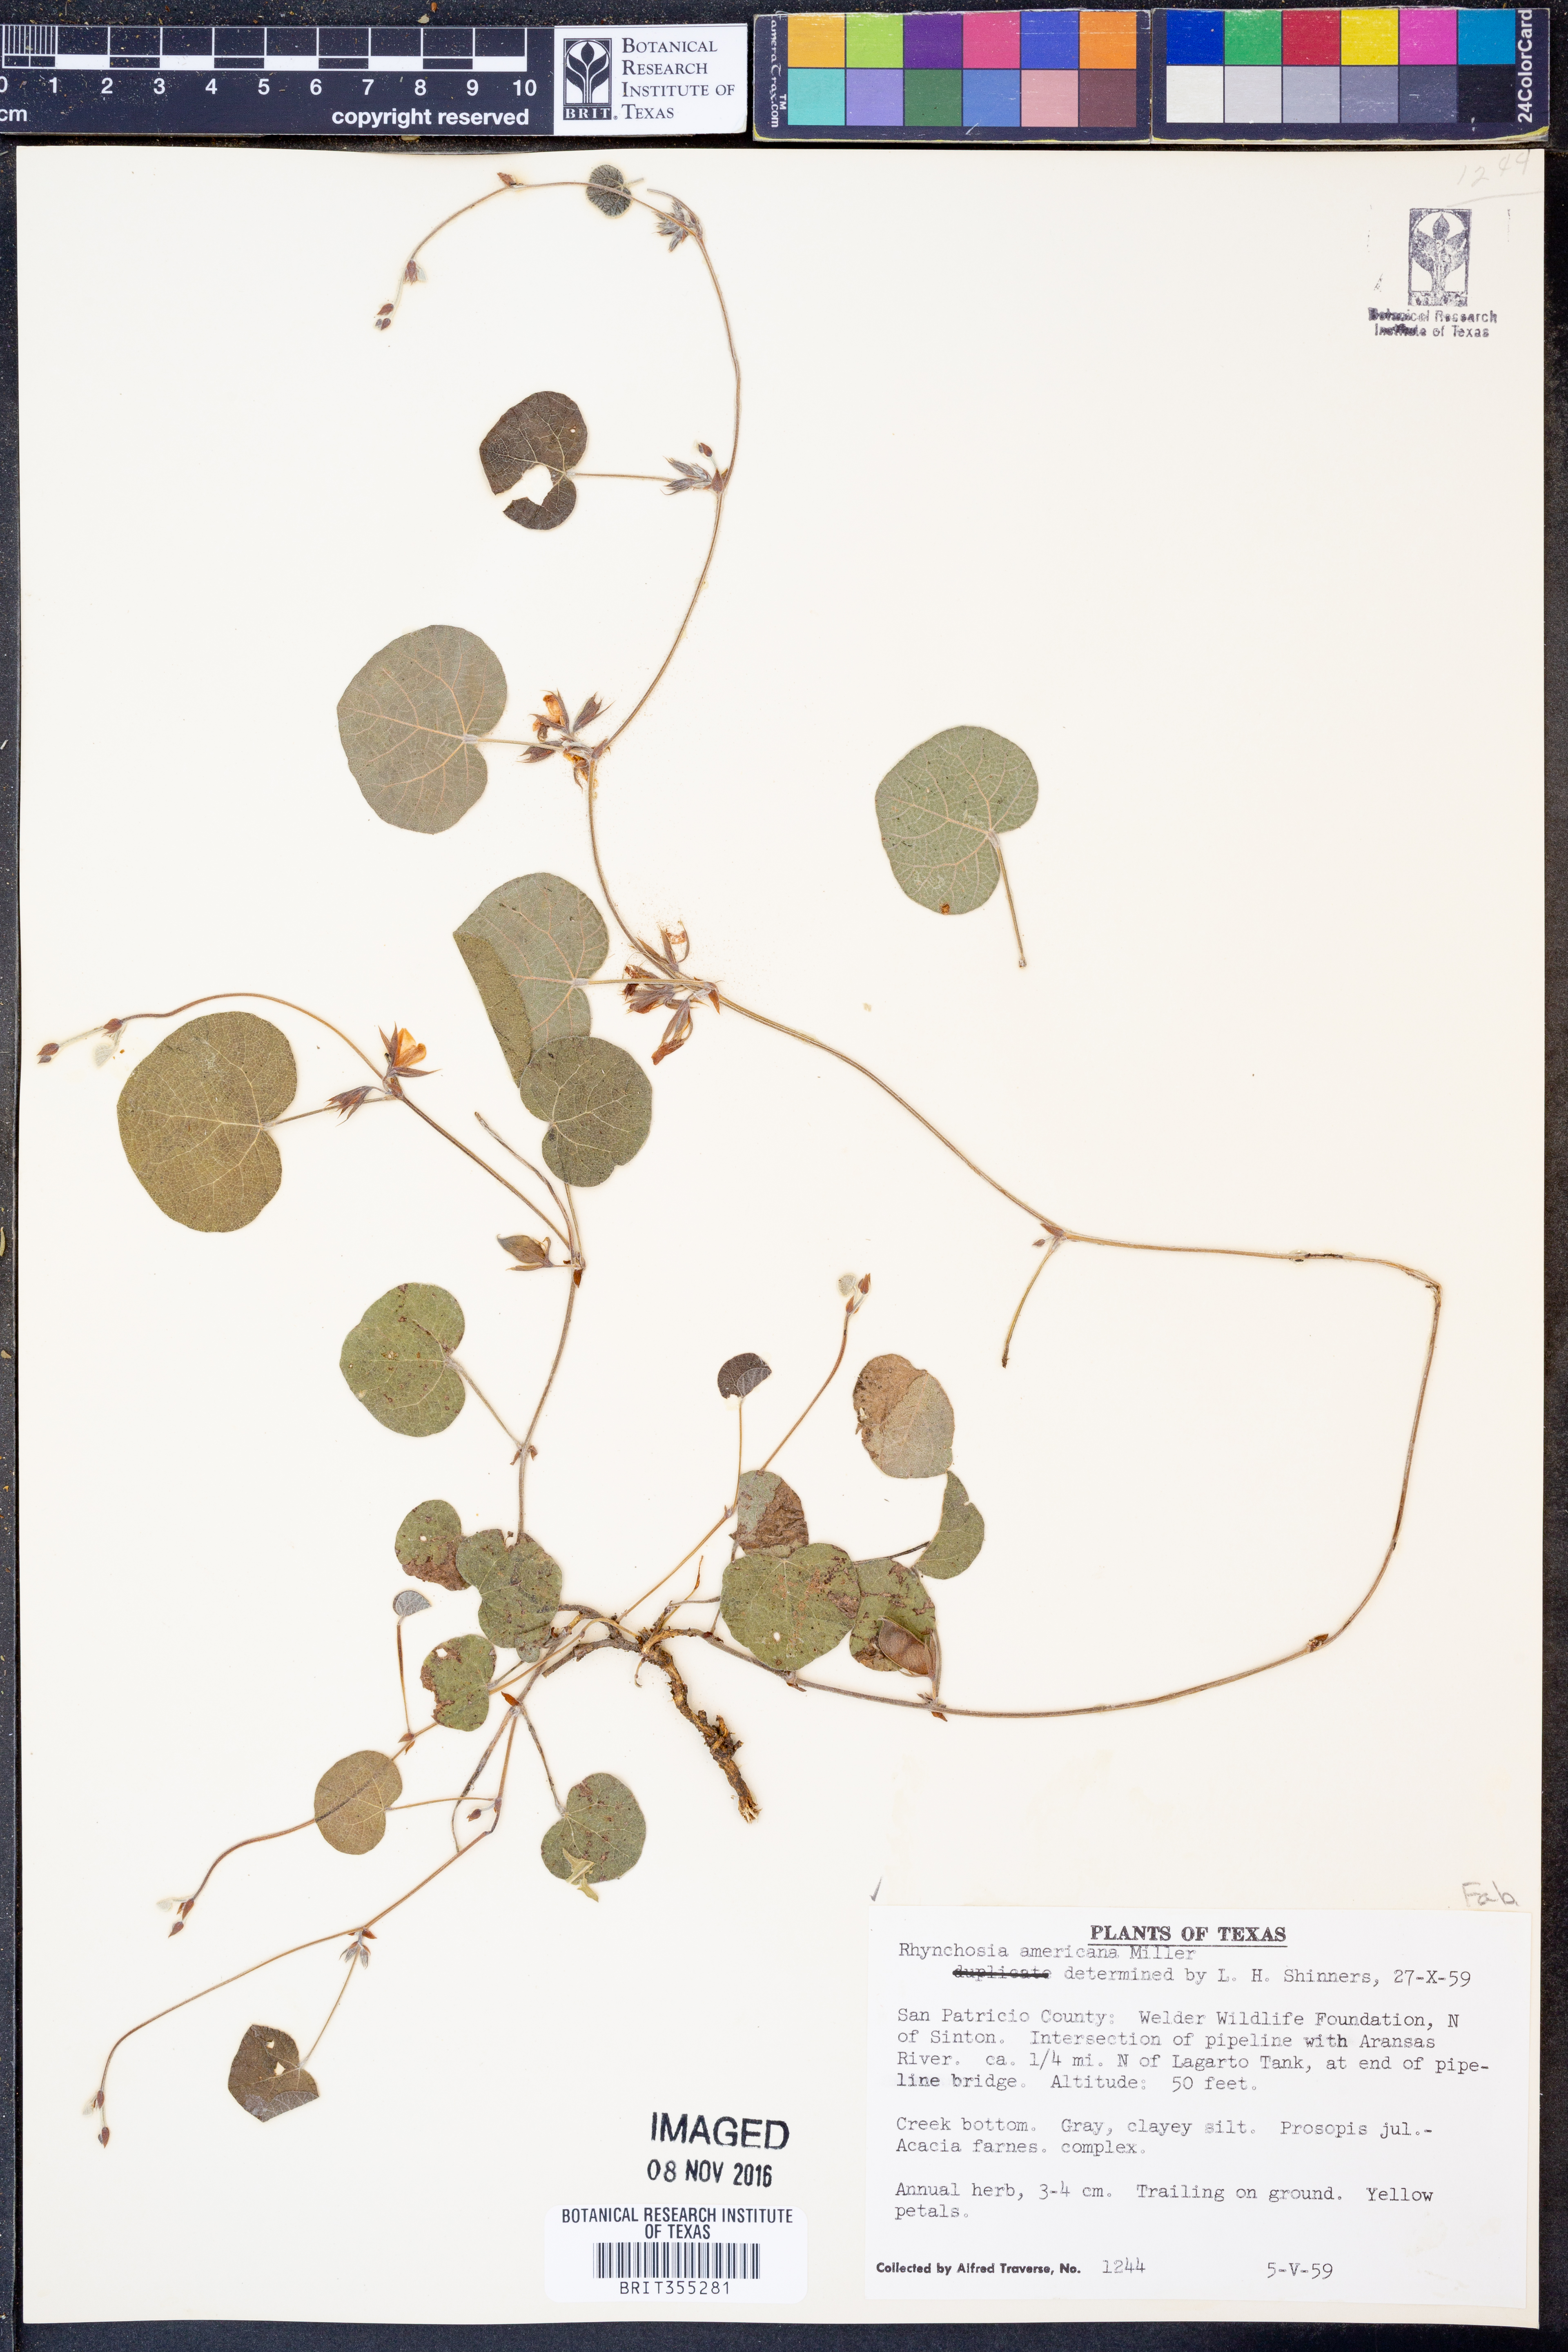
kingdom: Plantae
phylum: Tracheophyta
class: Magnoliopsida
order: Fabales
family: Fabaceae
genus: Rhynchosia
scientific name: Rhynchosia americana
